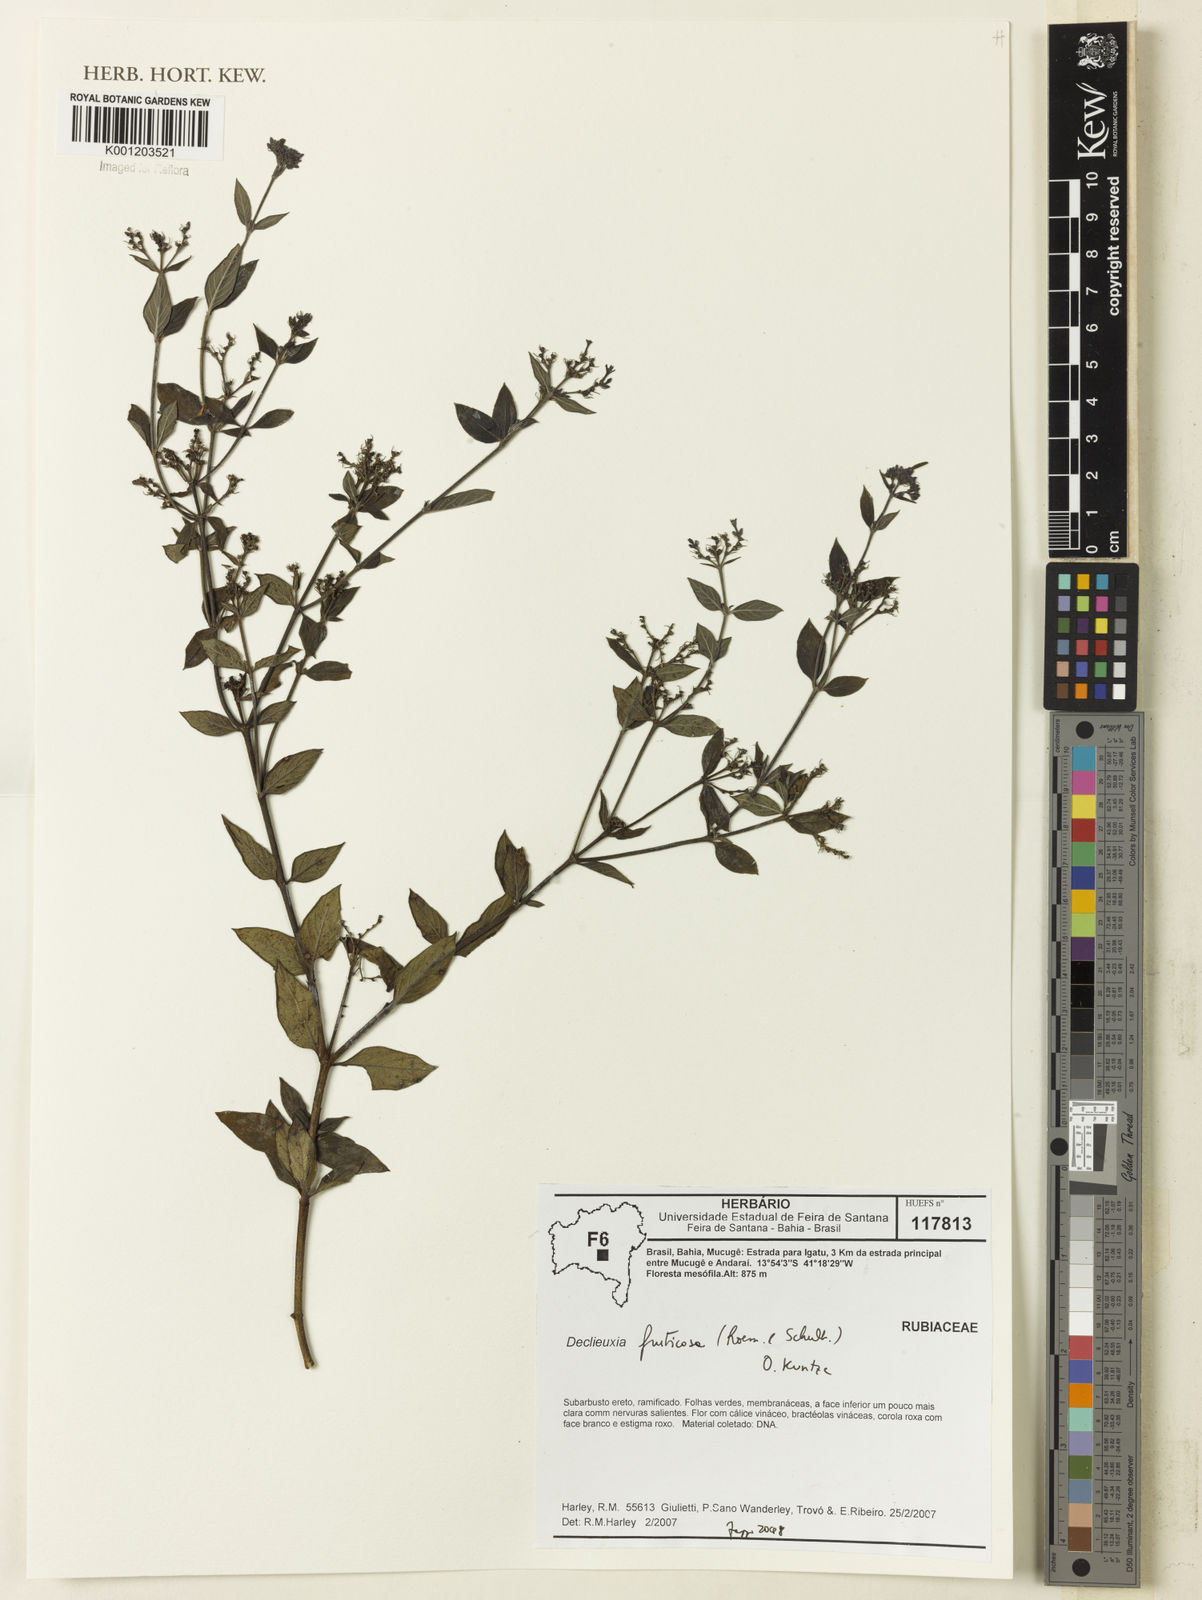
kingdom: Plantae
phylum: Tracheophyta
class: Magnoliopsida
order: Gentianales
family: Rubiaceae
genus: Declieuxia
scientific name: Declieuxia fruticosa
